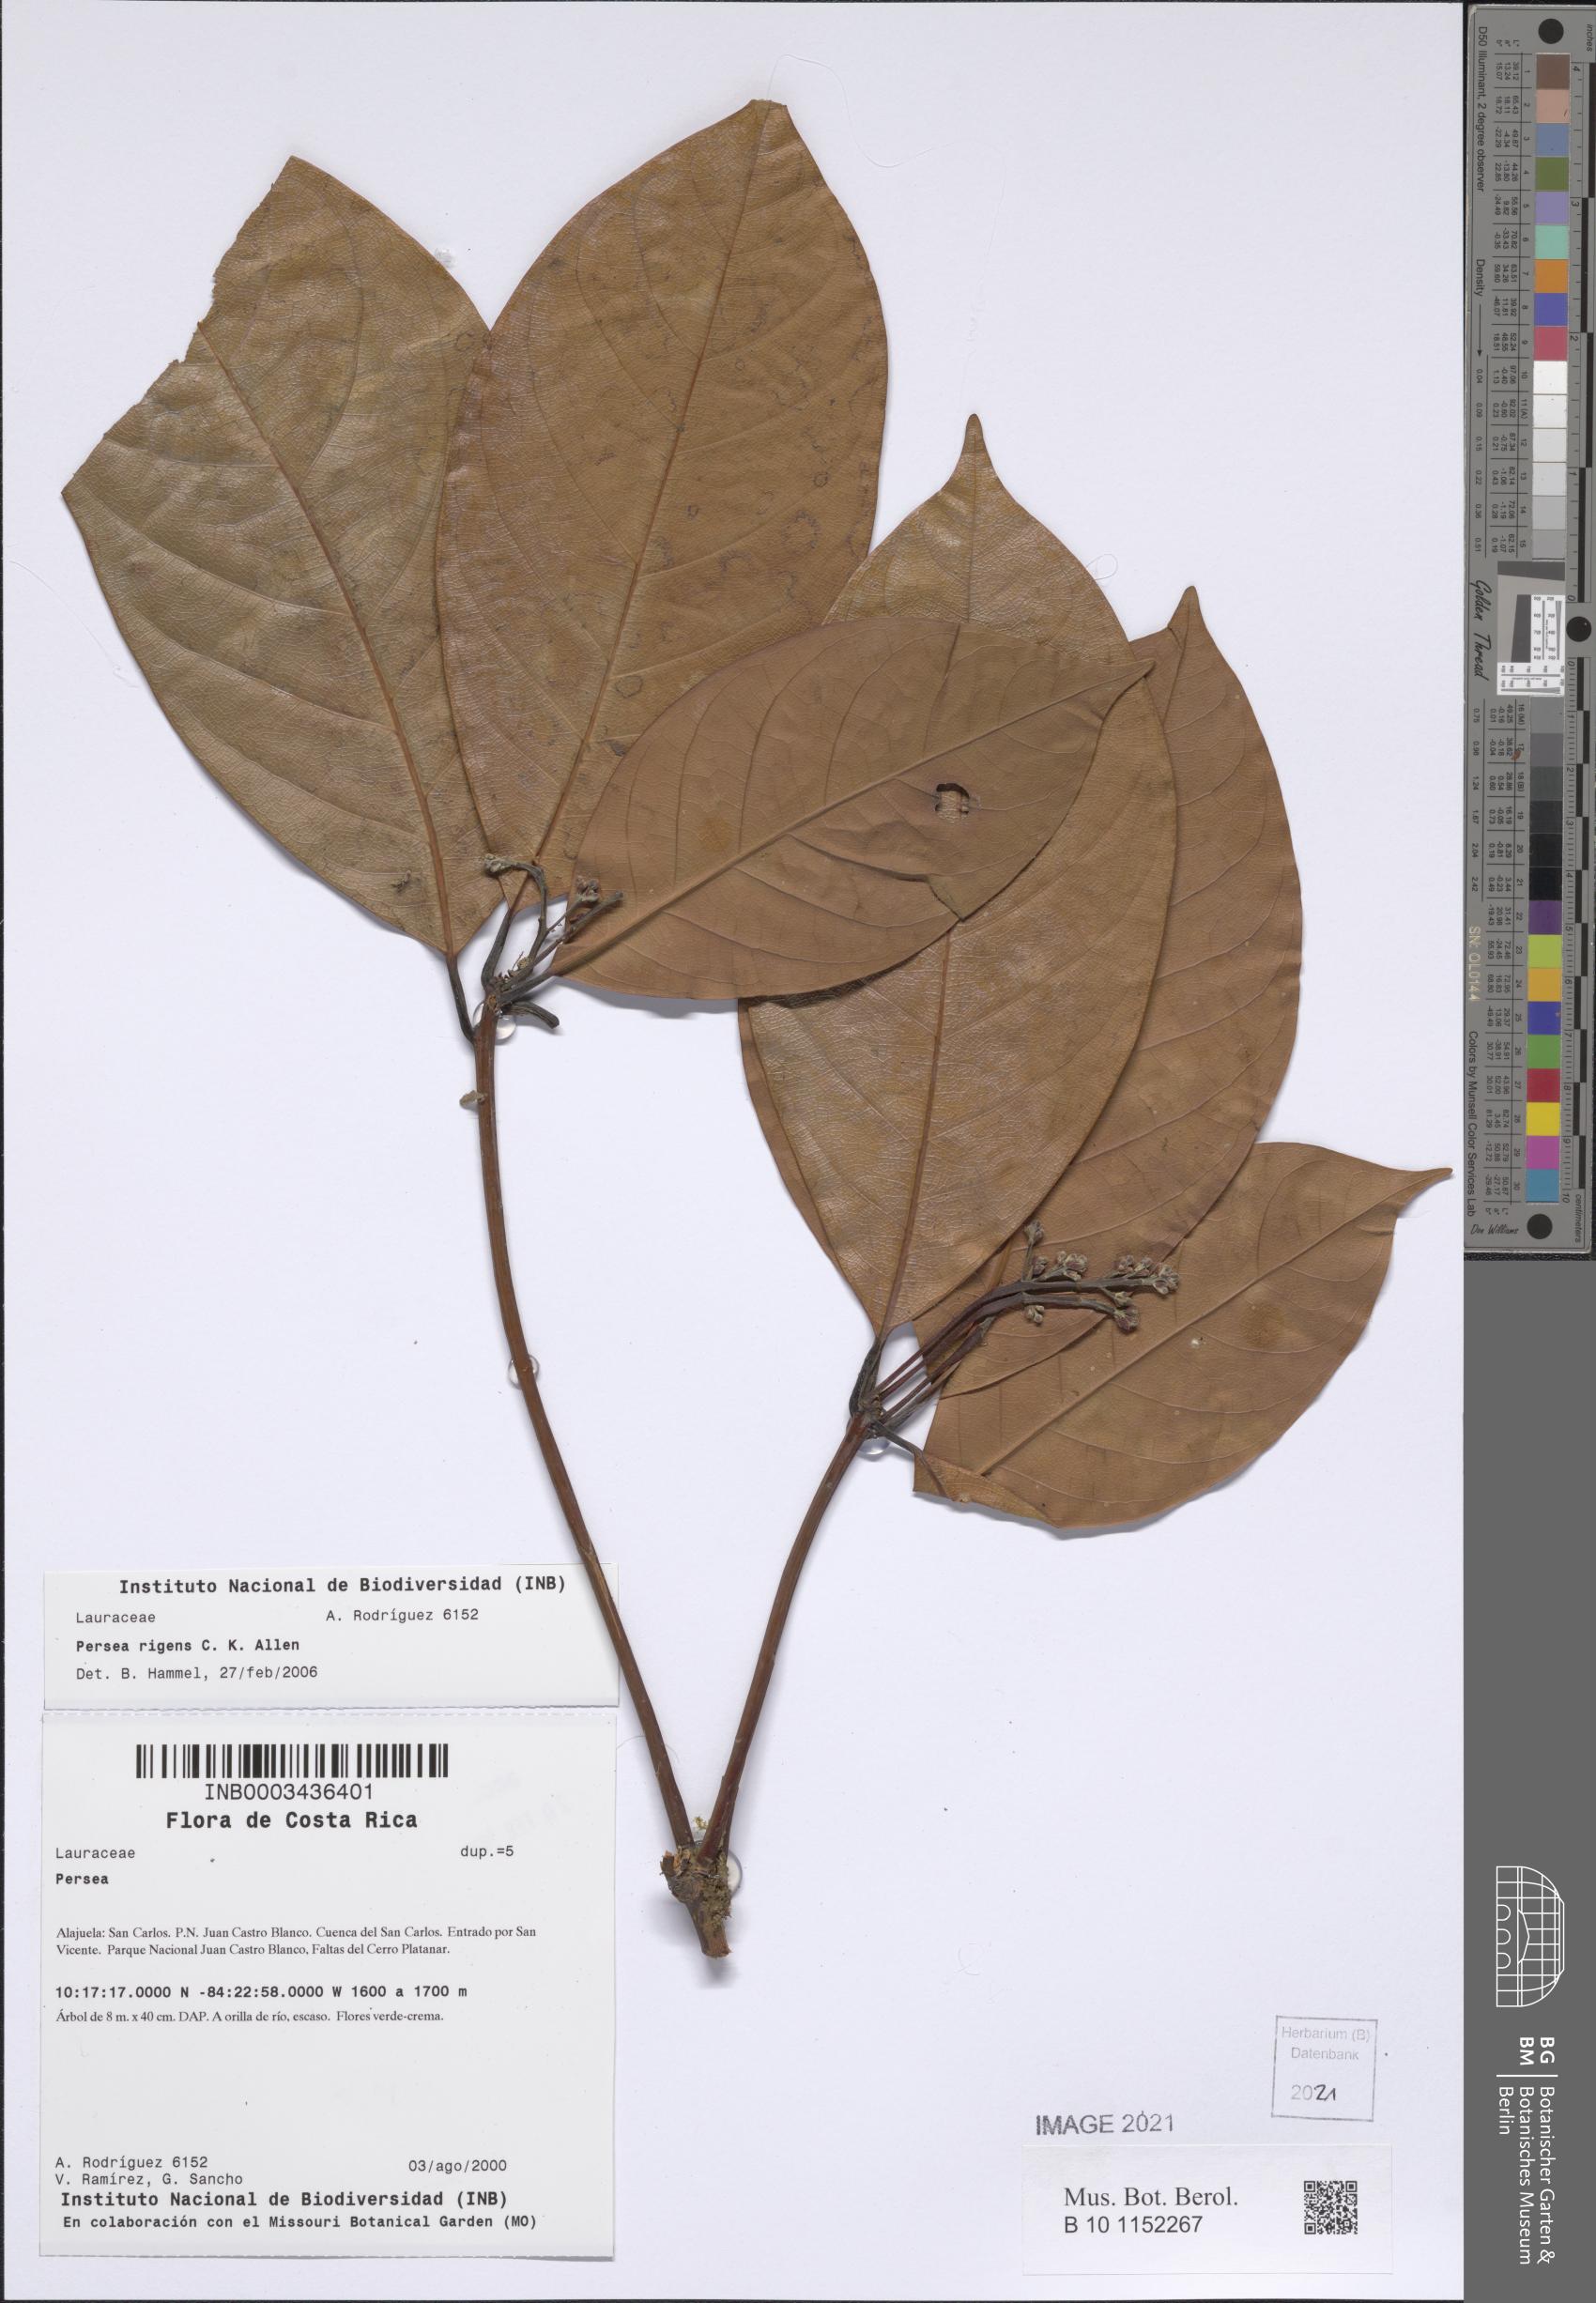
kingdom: Plantae
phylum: Tracheophyta
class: Magnoliopsida
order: Laurales
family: Lauraceae
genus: Persea
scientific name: Persea rigens
